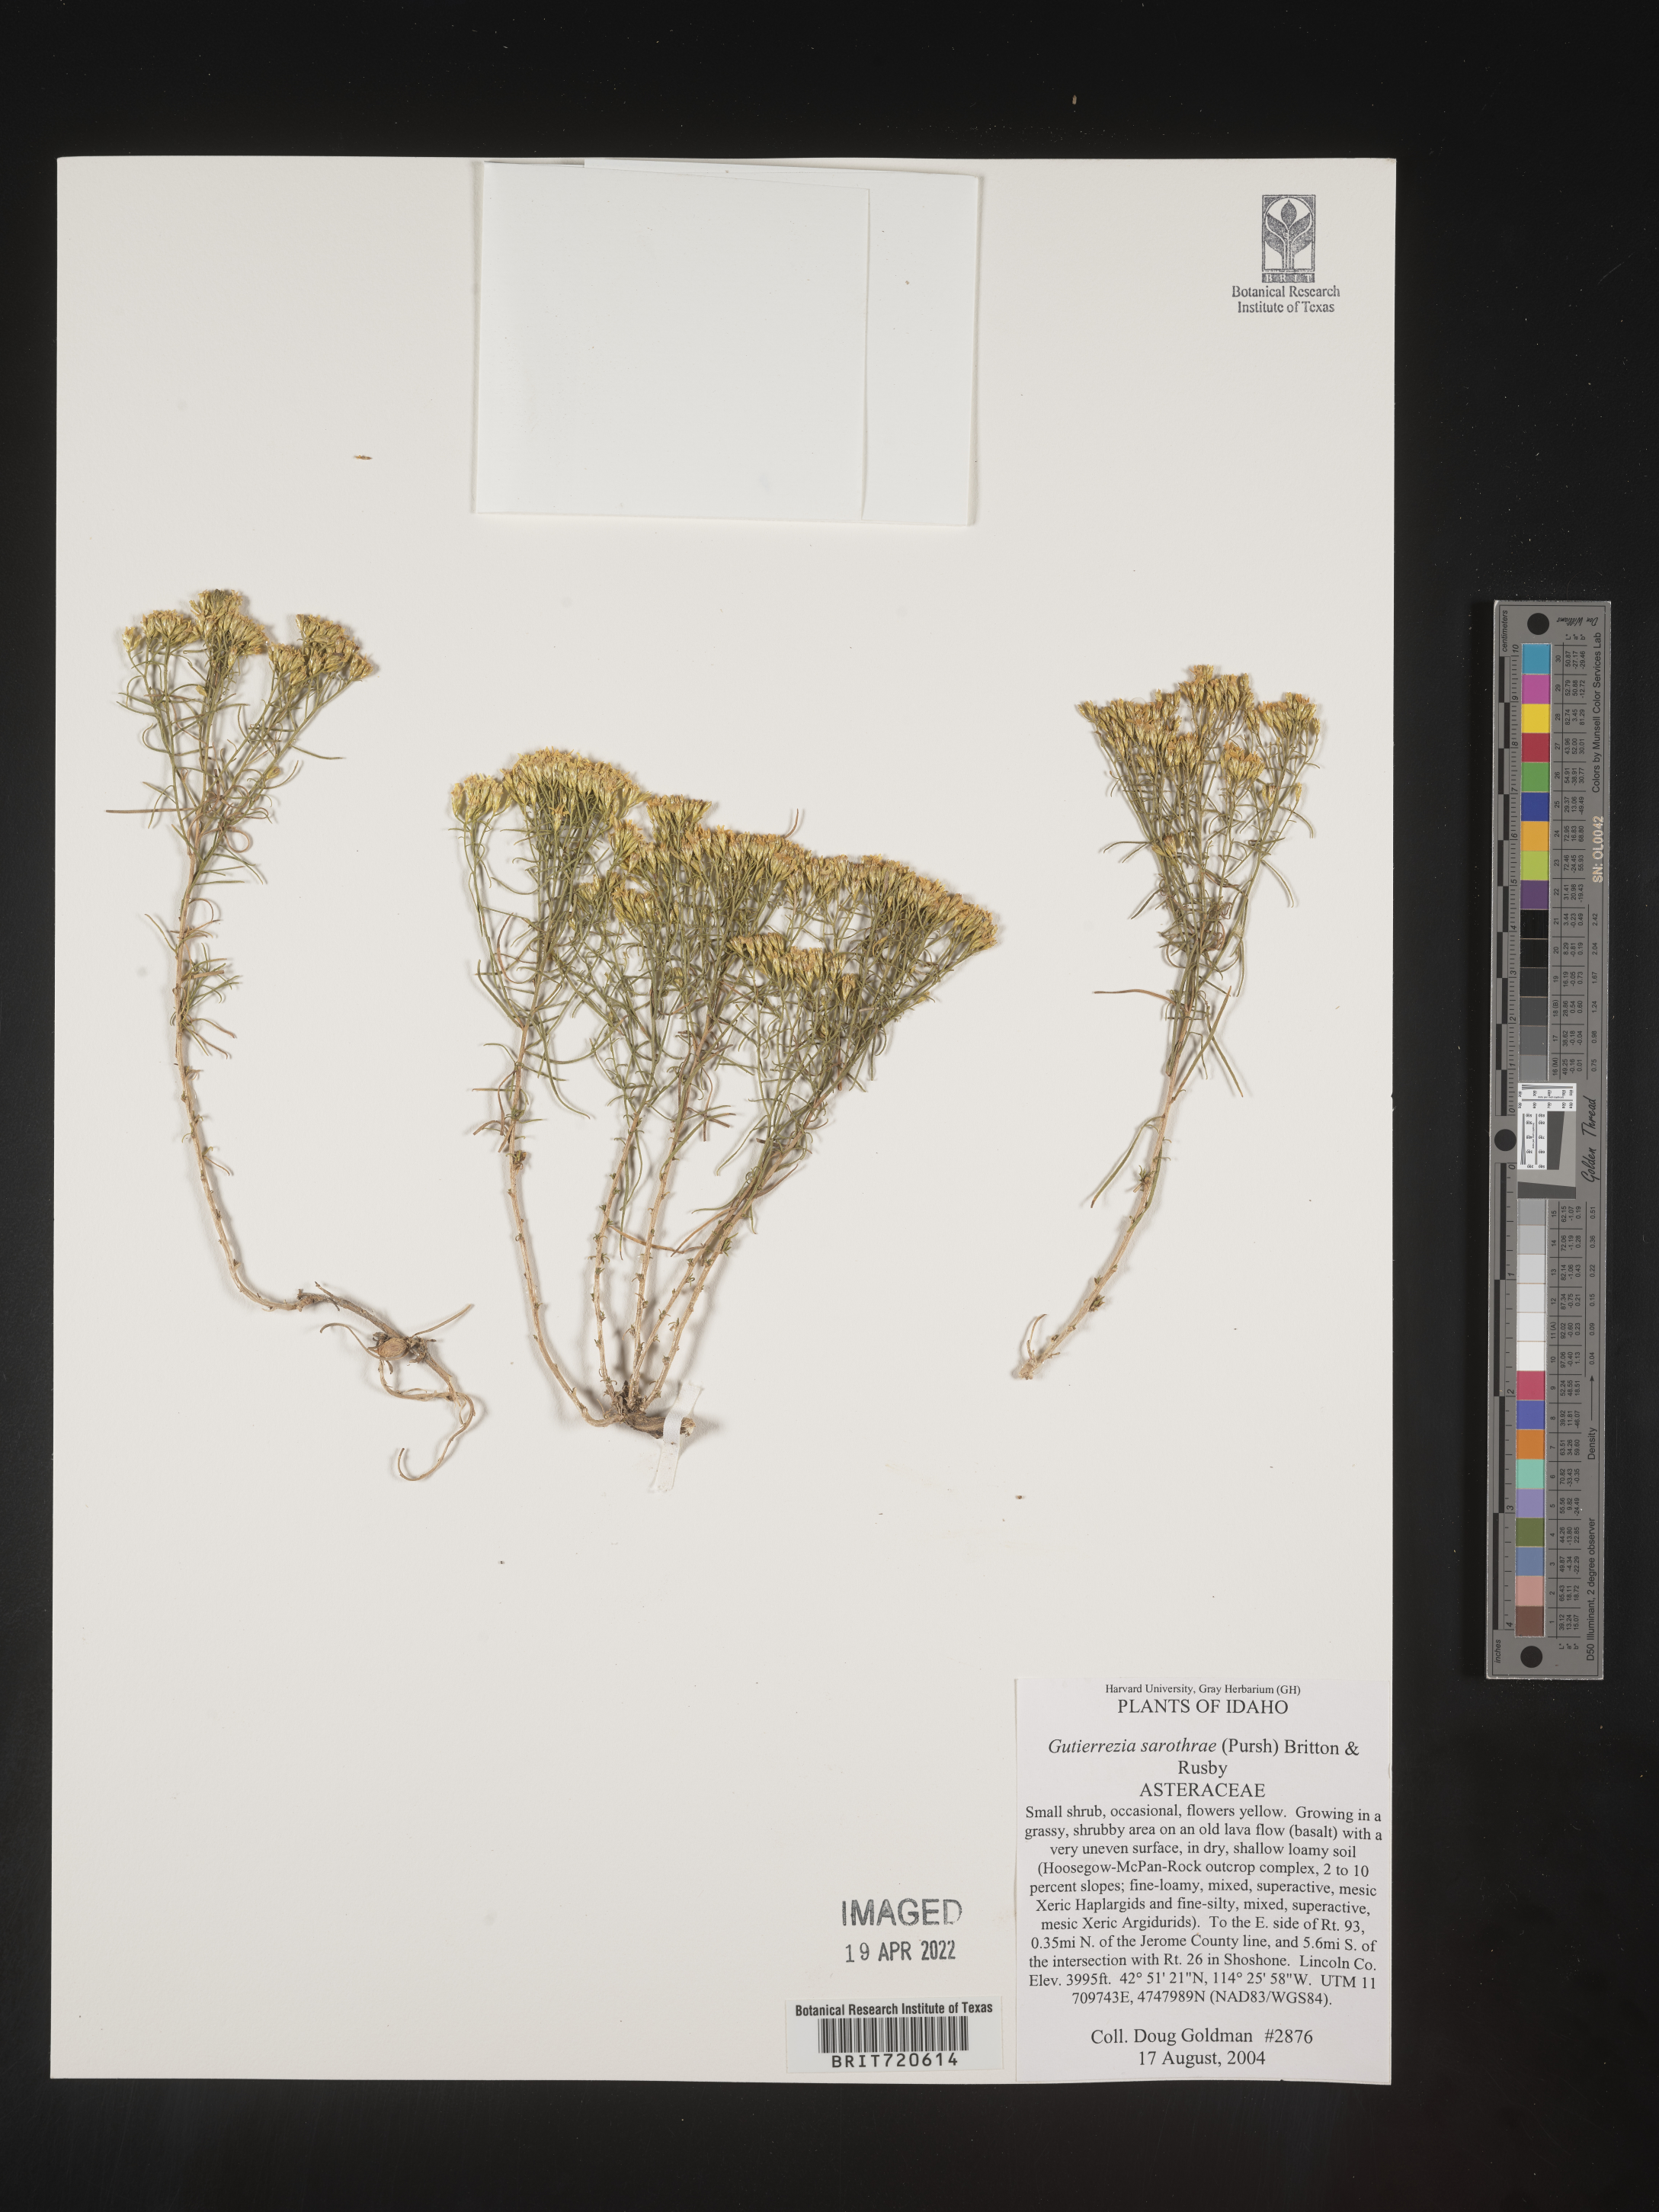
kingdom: Plantae
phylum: Tracheophyta
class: Magnoliopsida
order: Asterales
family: Asteraceae
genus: Gutierrezia
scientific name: Gutierrezia sarothrae
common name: Broom snakeweed
